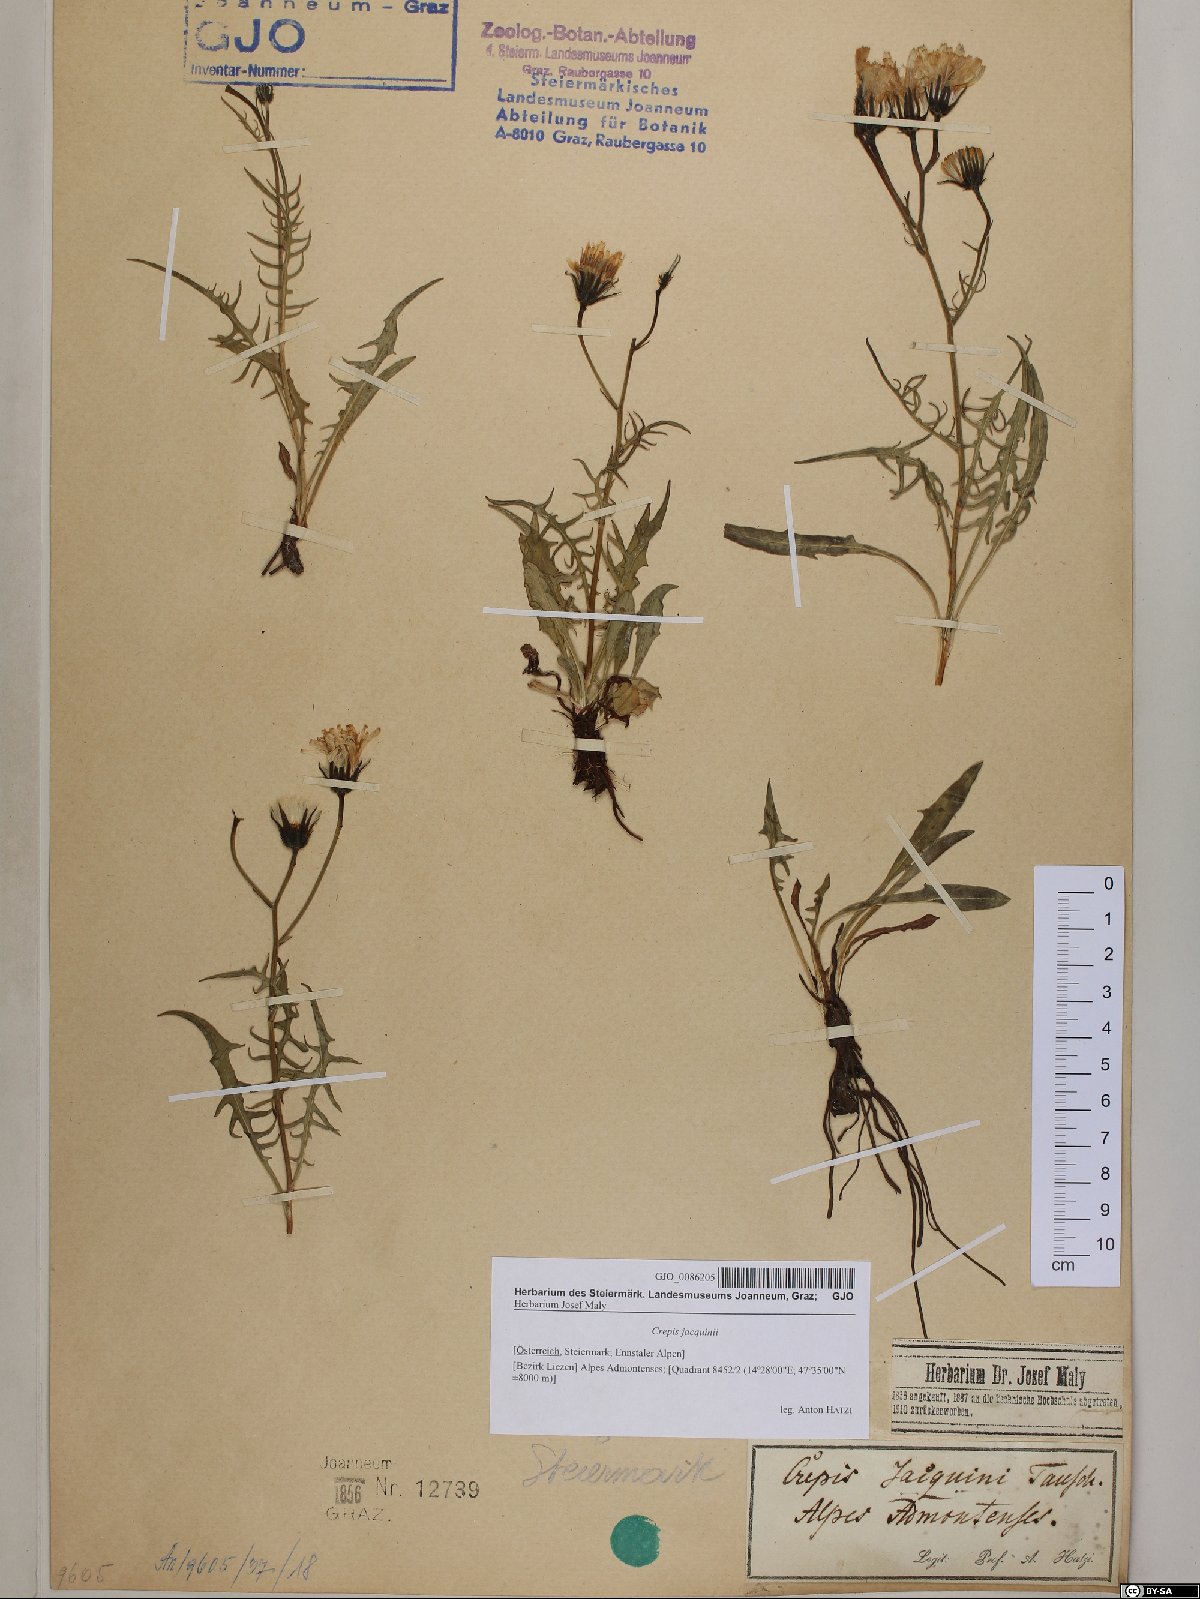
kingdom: Plantae
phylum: Tracheophyta
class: Magnoliopsida
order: Asterales
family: Asteraceae
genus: Crepis
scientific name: Crepis jacquinii
